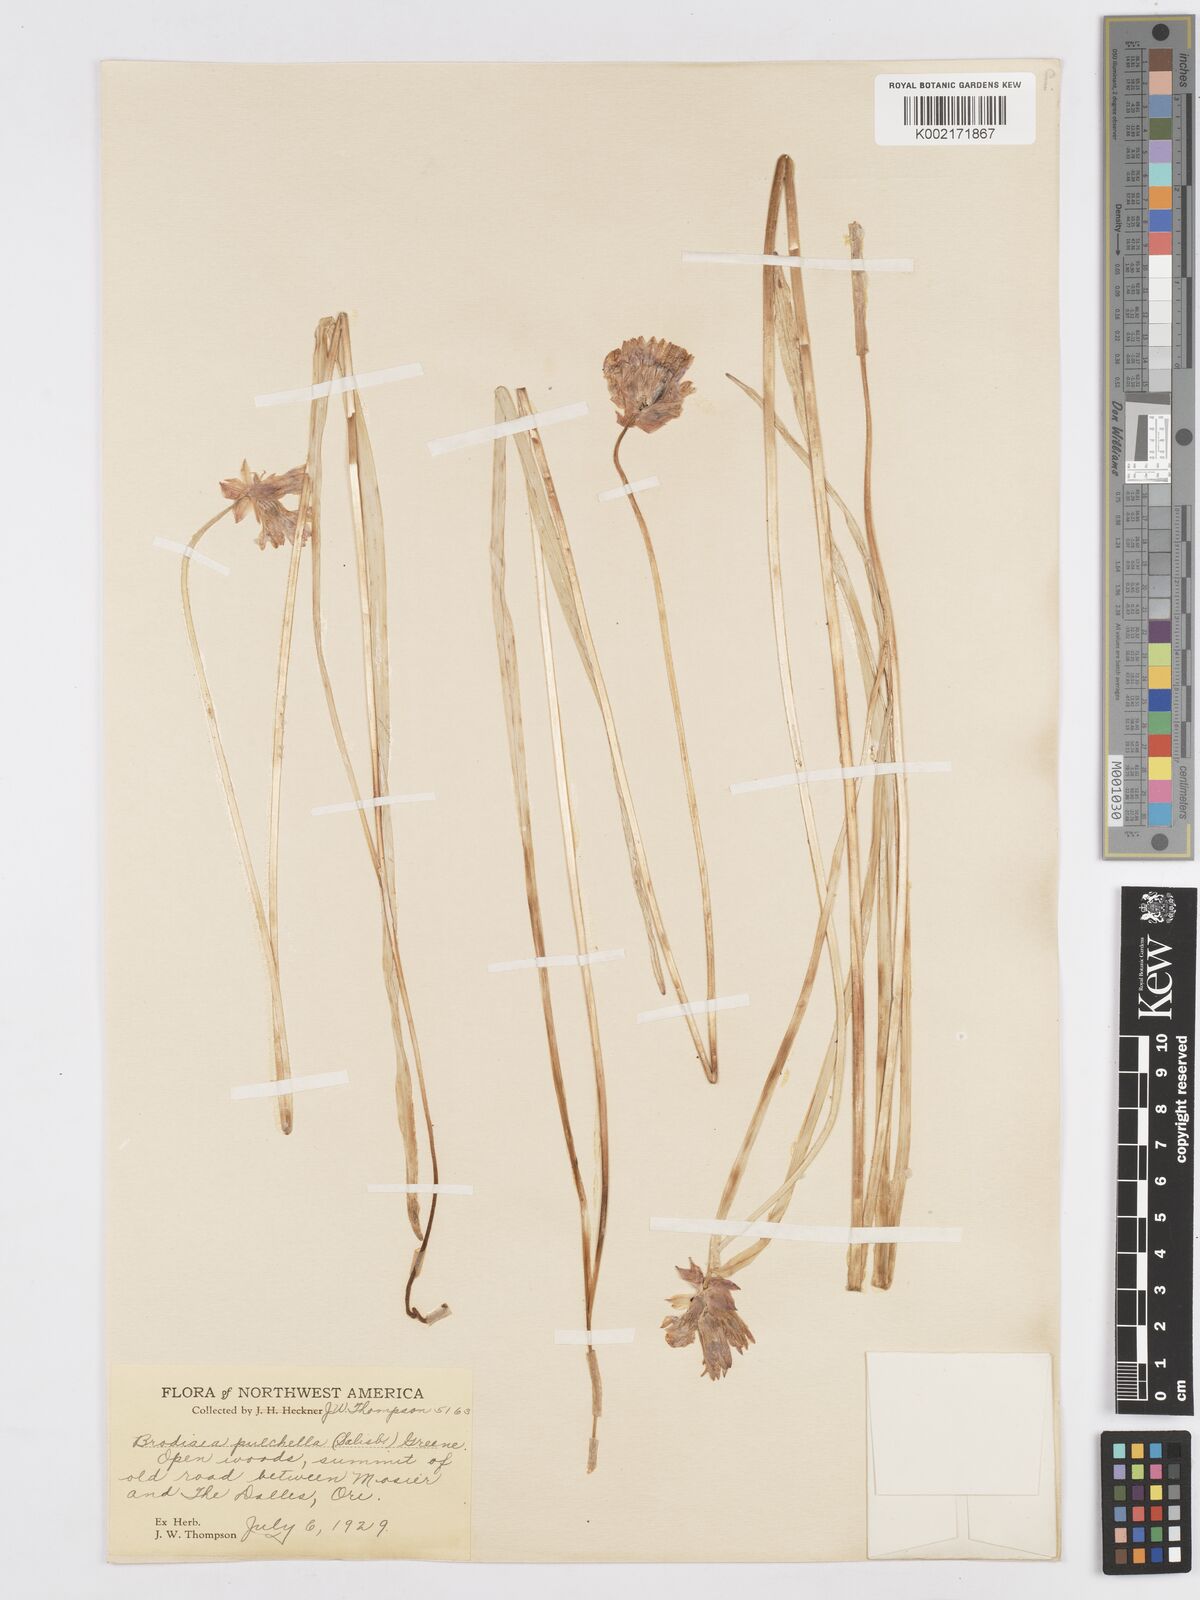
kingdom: Plantae
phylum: Tracheophyta
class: Liliopsida
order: Asparagales
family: Asparagaceae
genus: Dichelostemma
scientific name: Dichelostemma congestum
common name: Fork-tooth ookow
